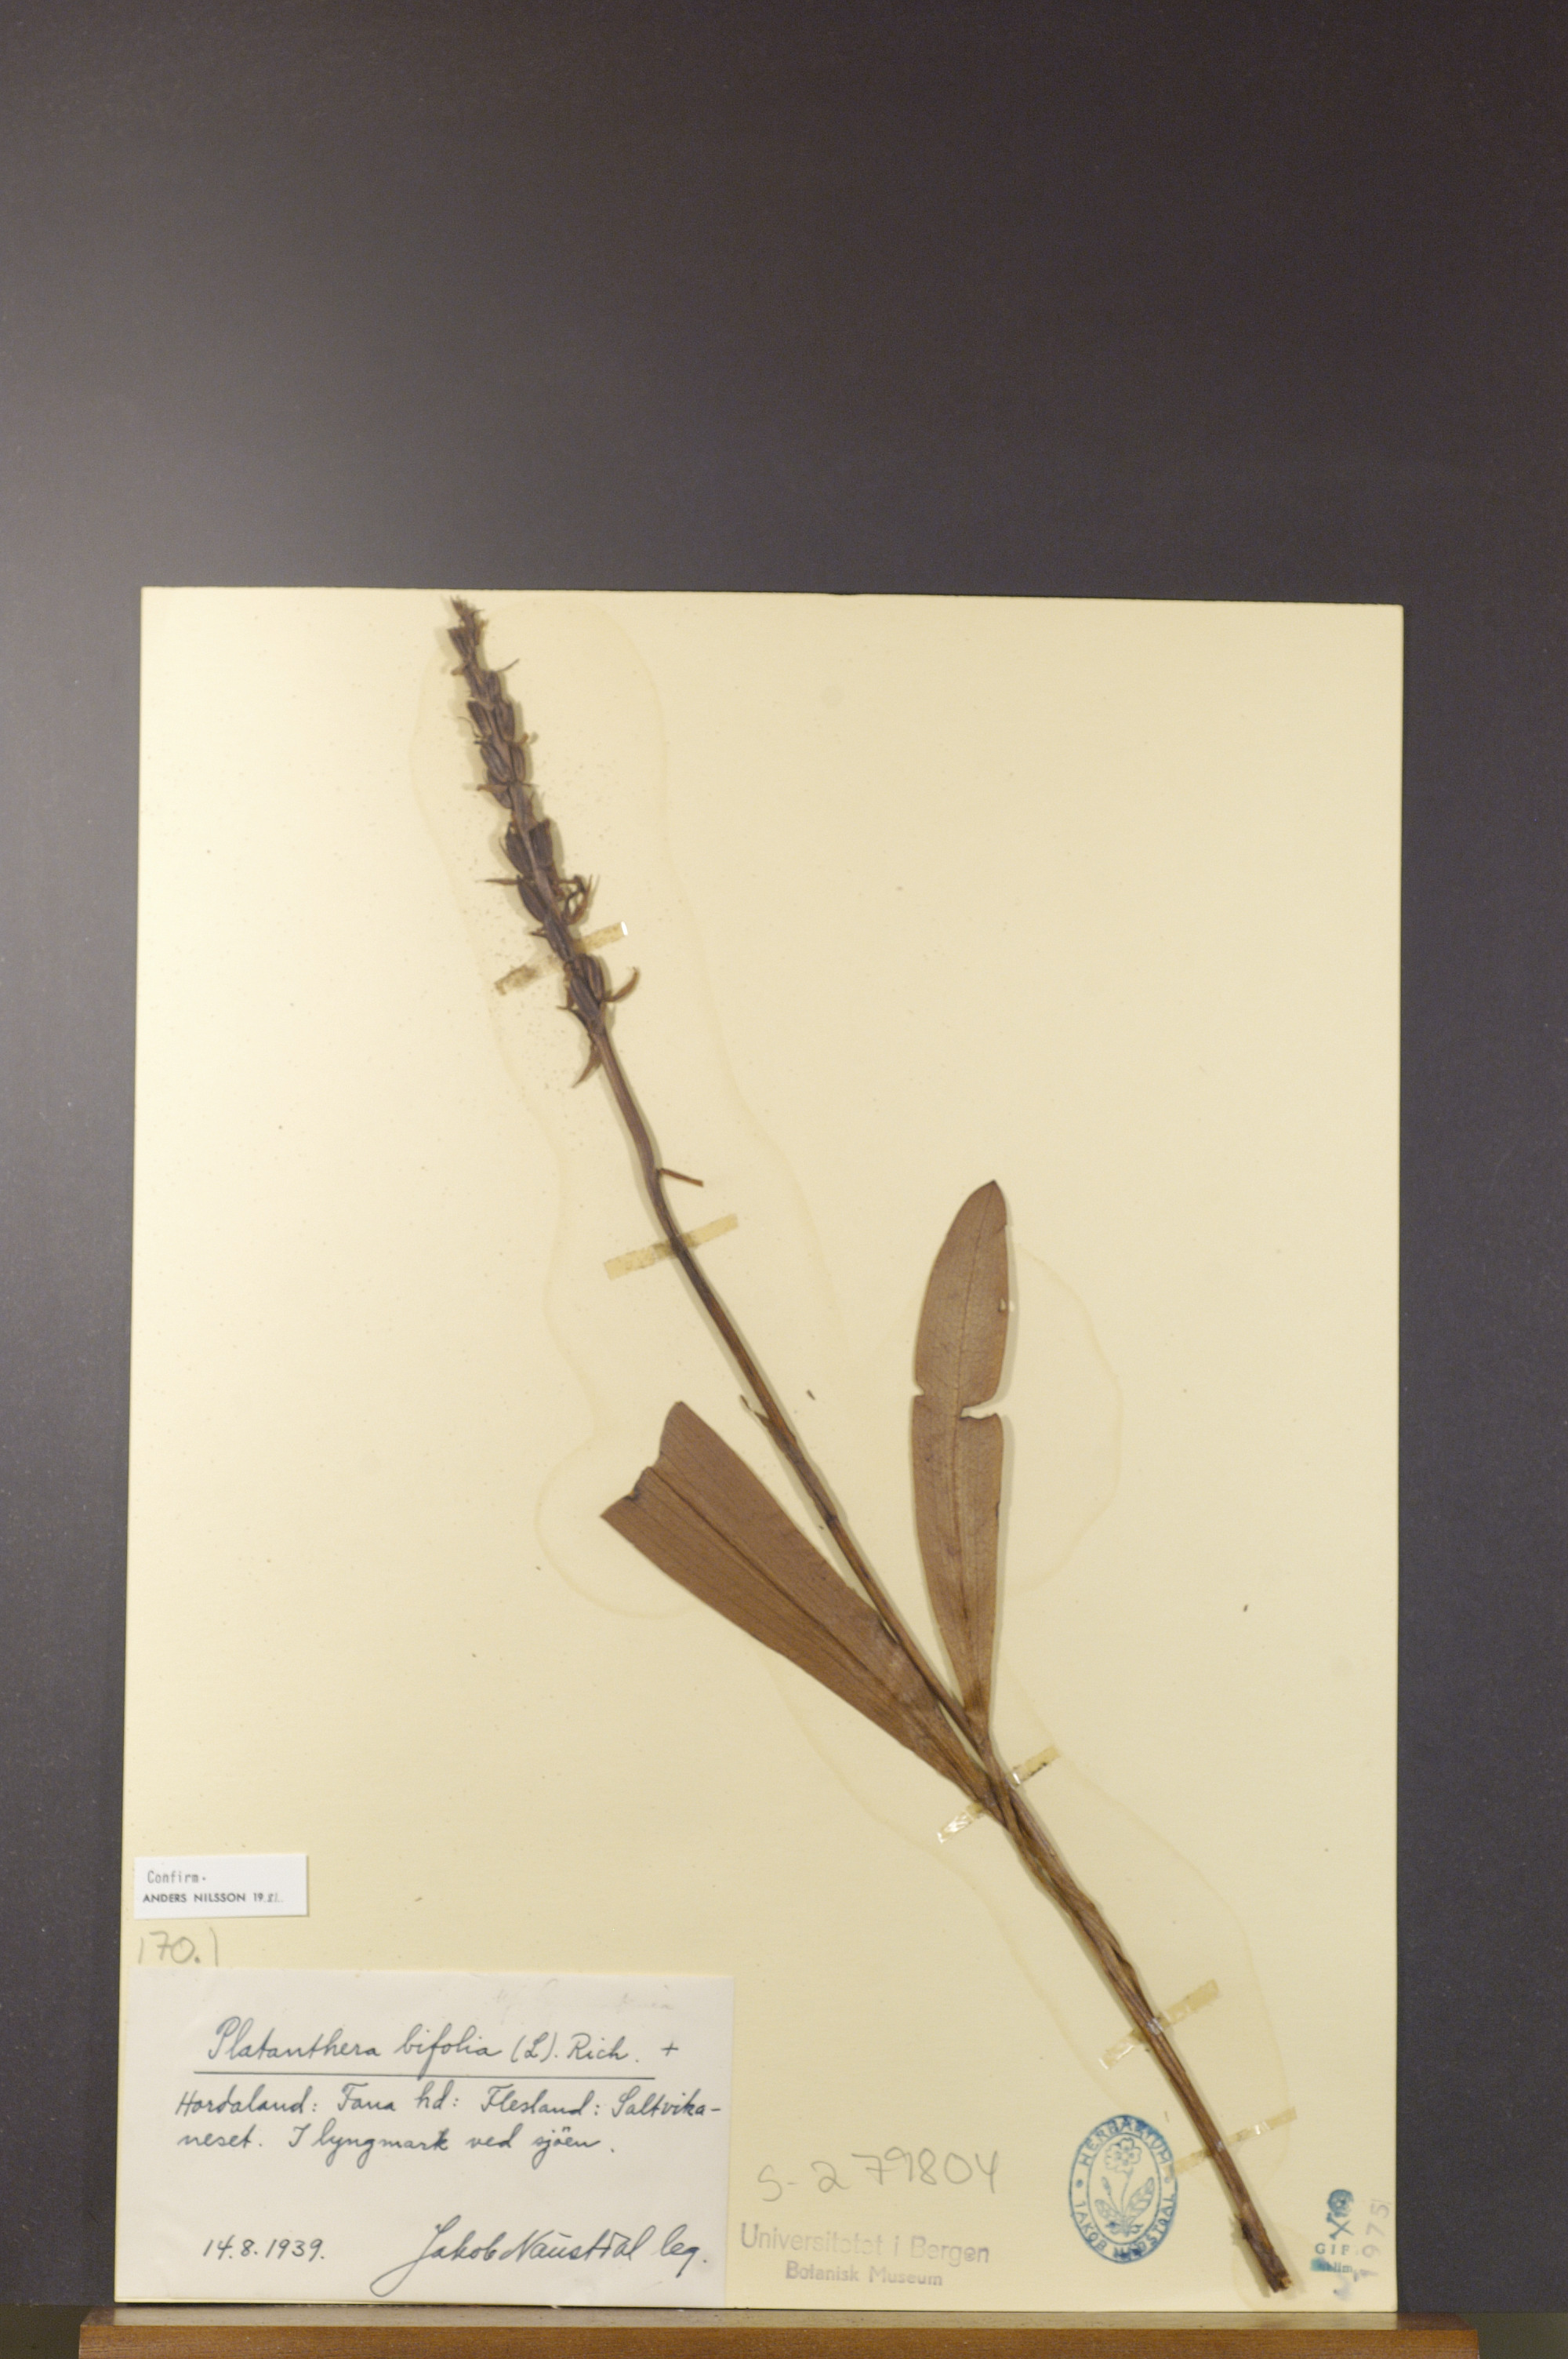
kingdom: Plantae
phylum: Tracheophyta
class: Liliopsida
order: Asparagales
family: Orchidaceae
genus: Platanthera
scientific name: Platanthera bifolia
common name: Lesser butterfly-orchid
